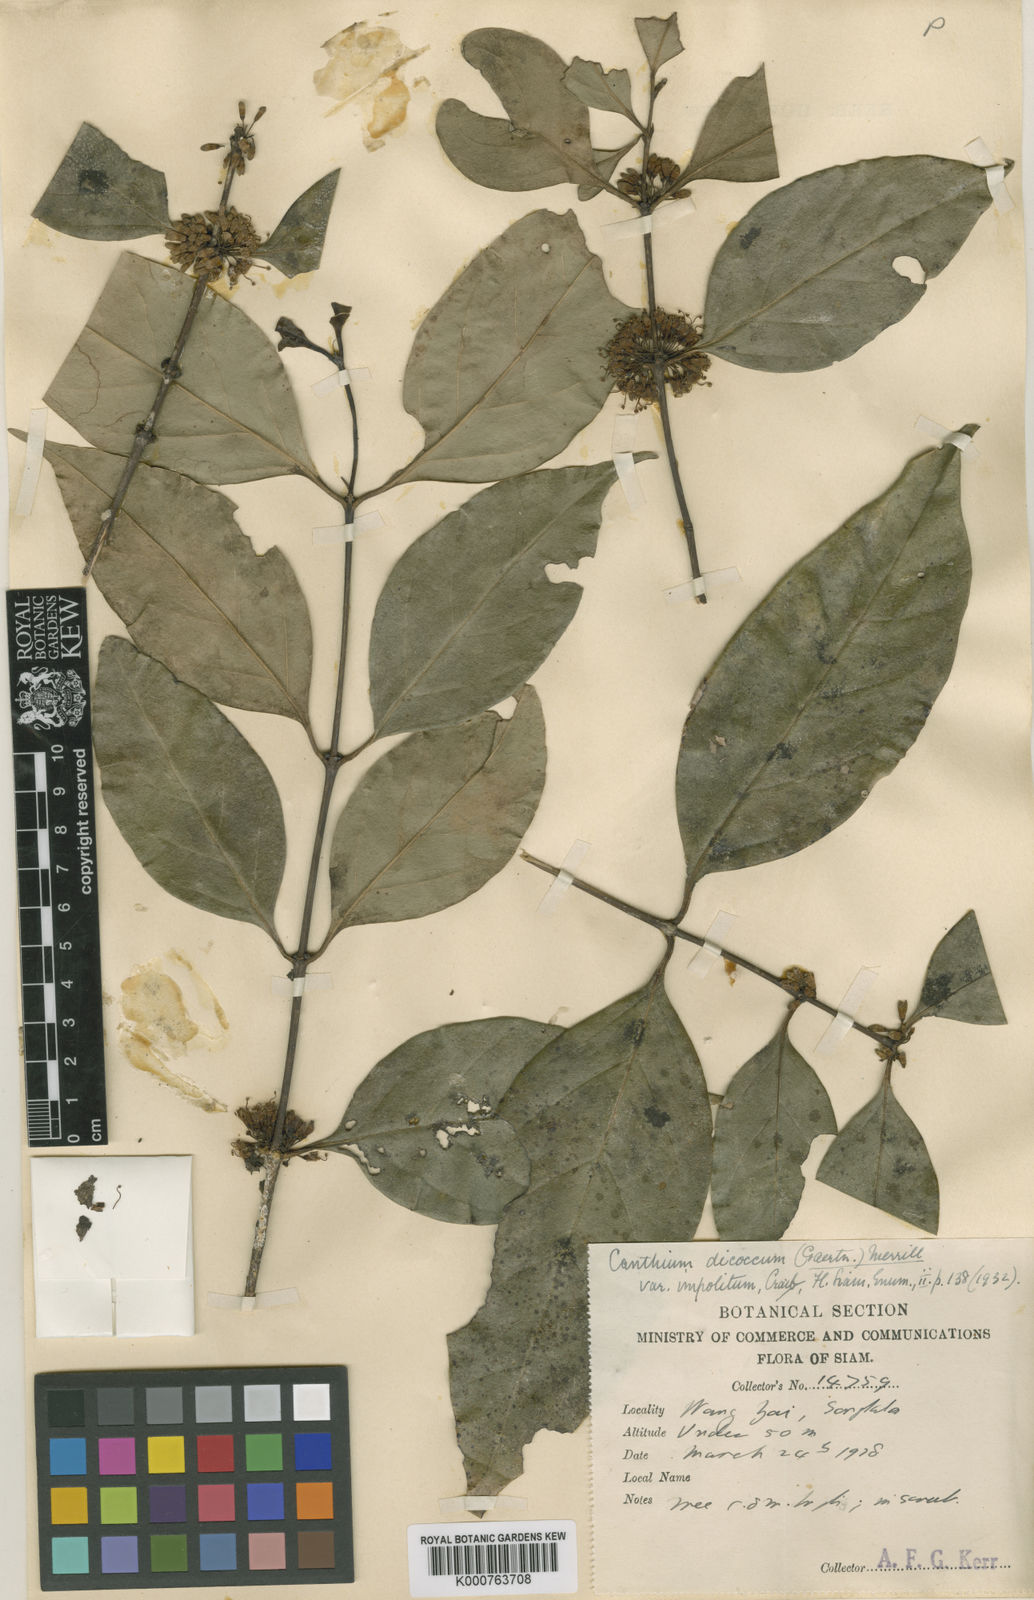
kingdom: Plantae
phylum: Tracheophyta
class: Magnoliopsida
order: Gentianales
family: Rubiaceae
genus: Psydrax
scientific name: Psydrax
